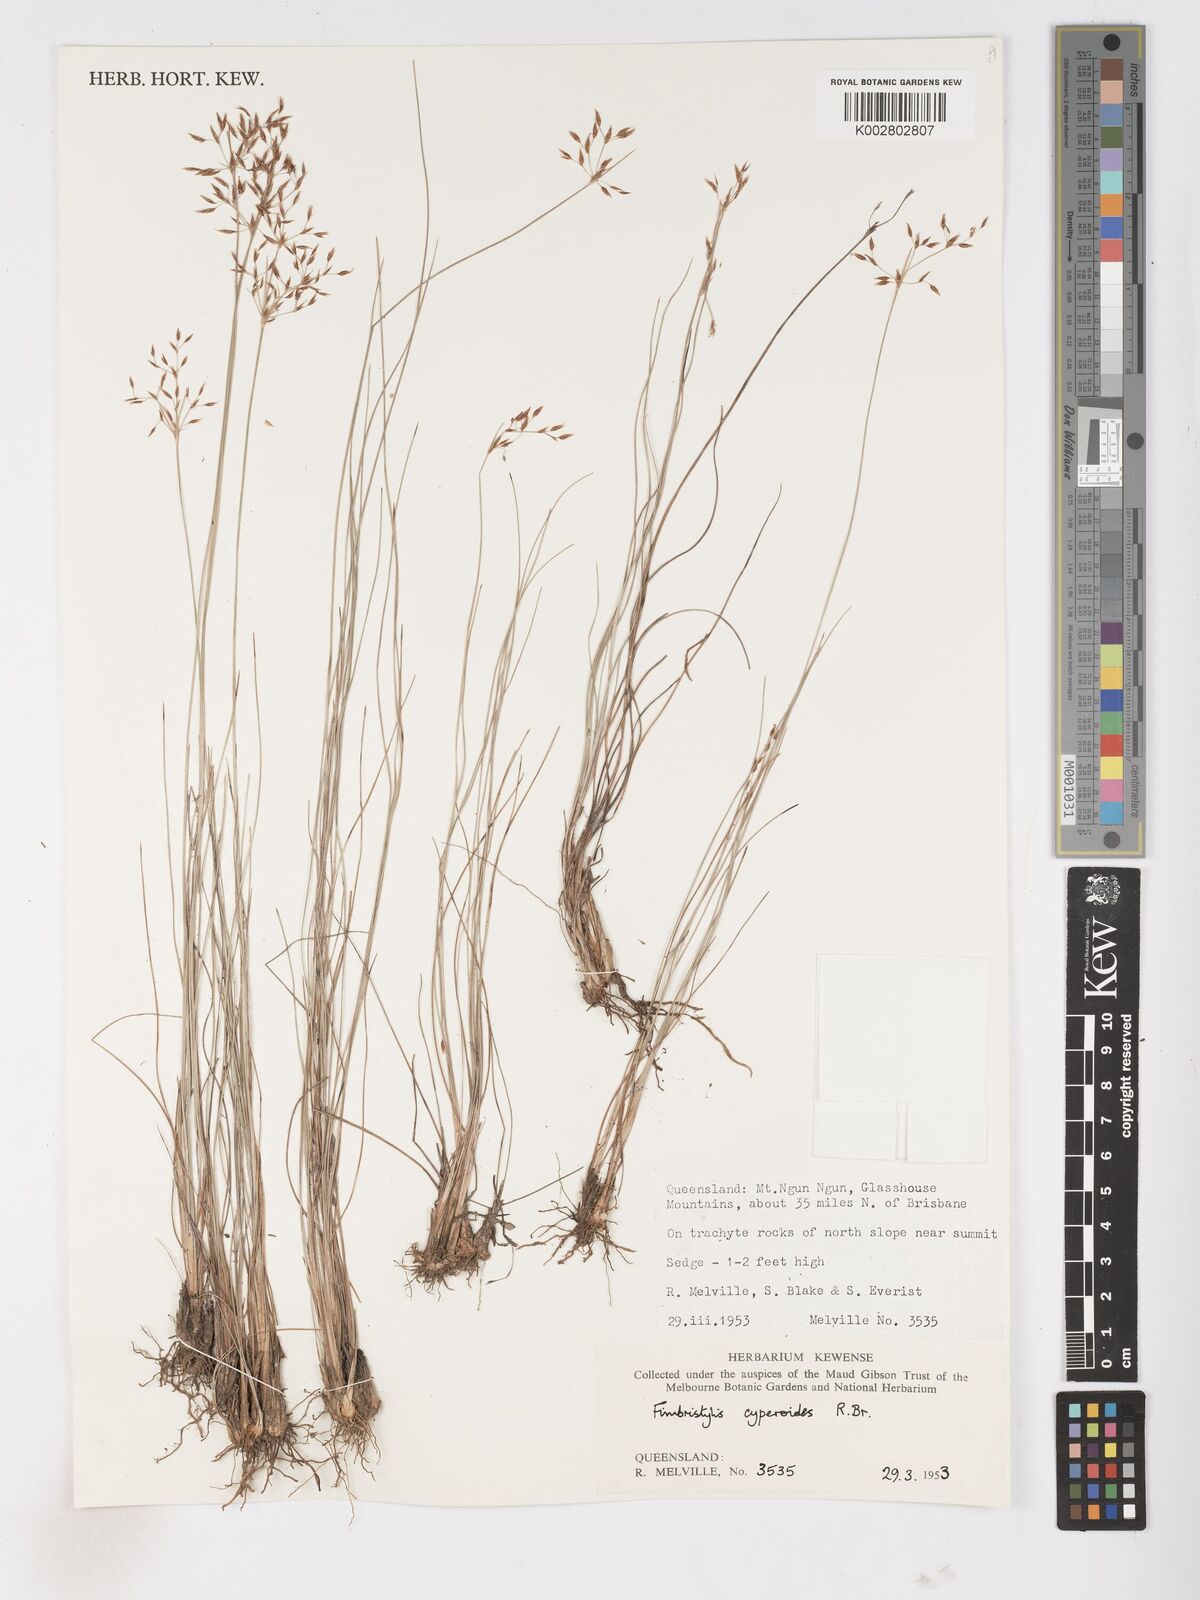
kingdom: Plantae
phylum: Tracheophyta
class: Liliopsida
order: Poales
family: Cyperaceae
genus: Fimbristylis
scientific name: Fimbristylis cinnamometorum
